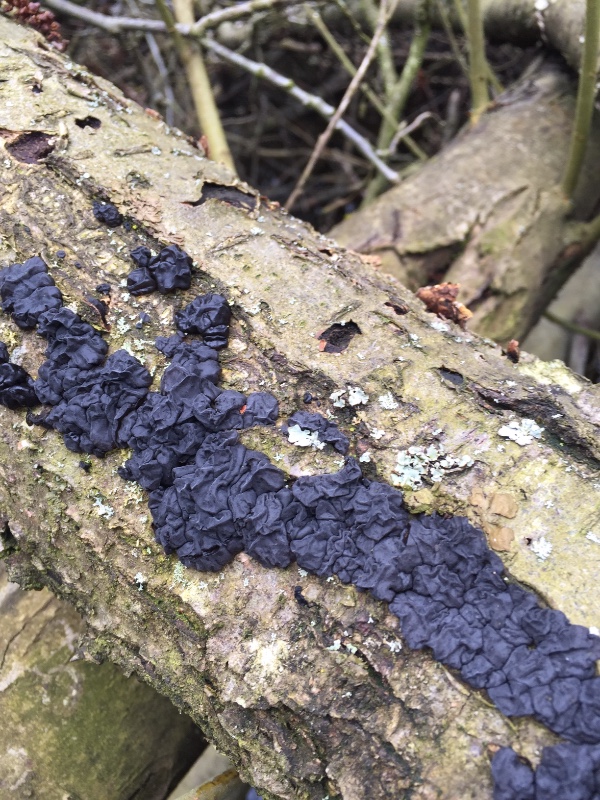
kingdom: Fungi
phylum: Basidiomycota
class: Agaricomycetes
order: Auriculariales
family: Auriculariaceae
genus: Exidia
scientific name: Exidia nigricans
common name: almindelig bævretop
